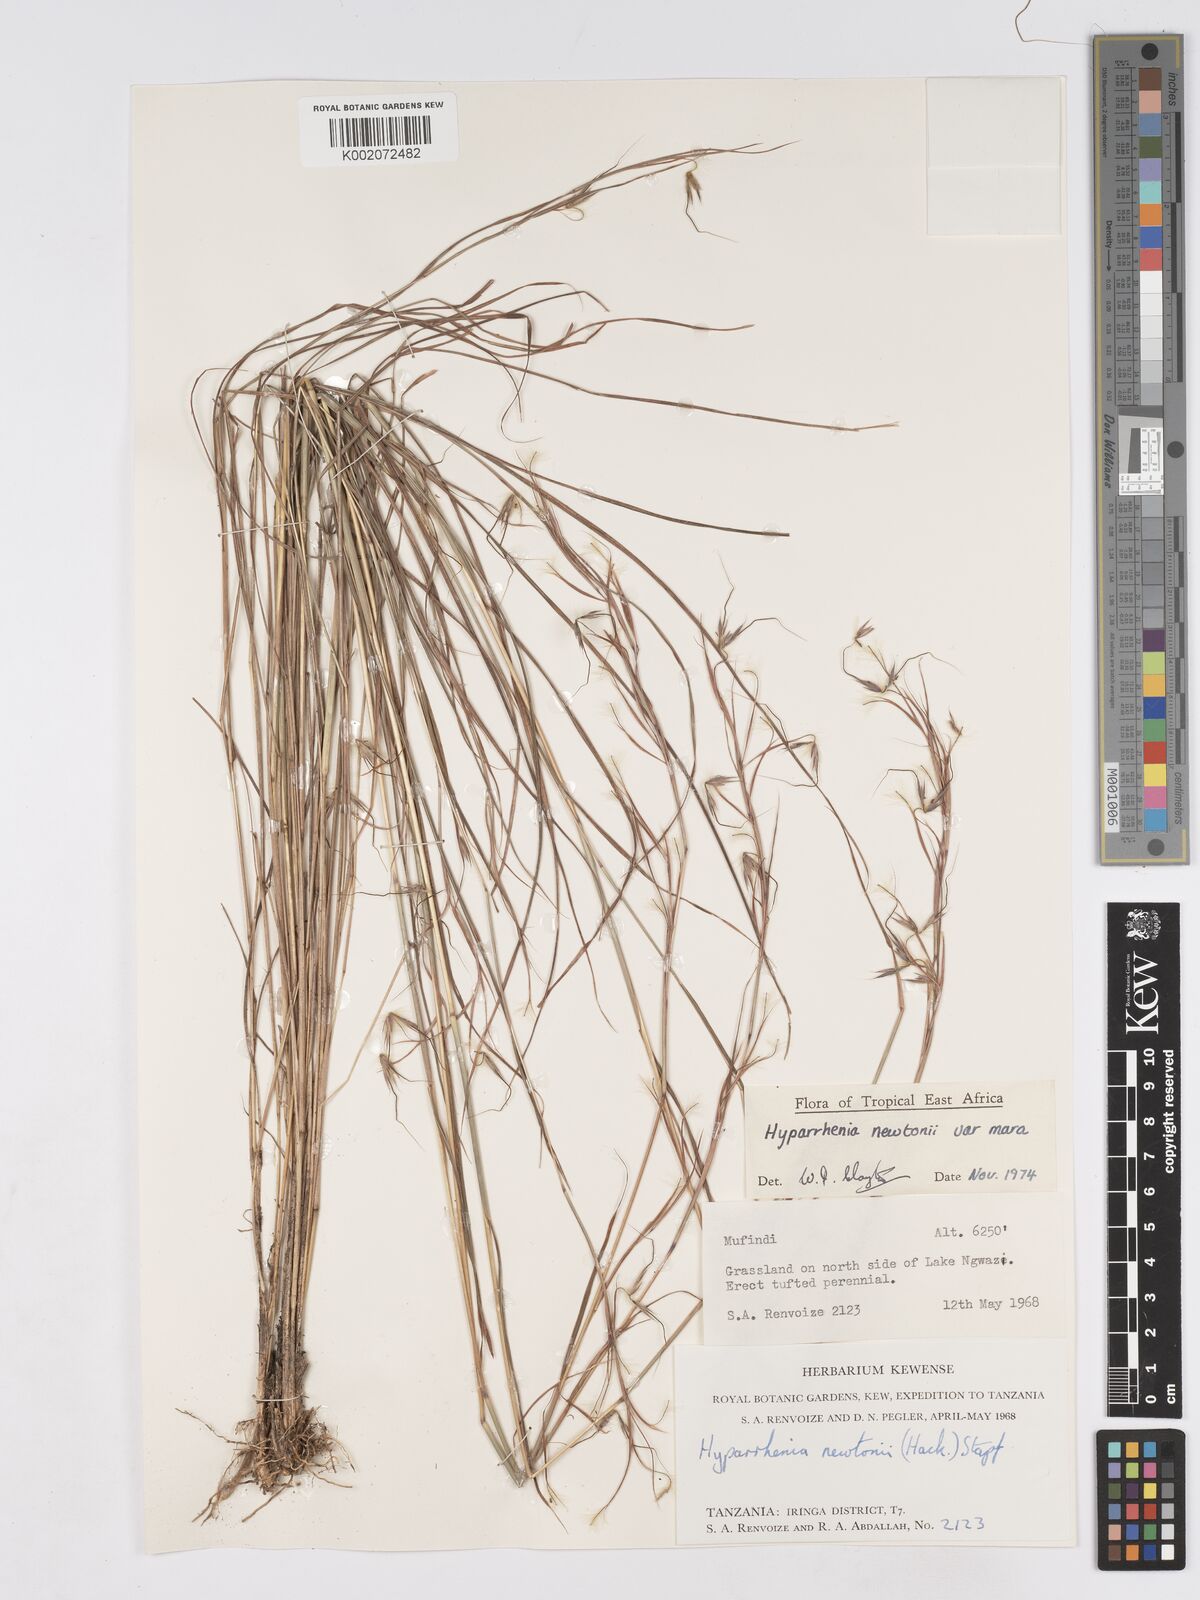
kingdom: Plantae
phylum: Tracheophyta
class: Liliopsida
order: Poales
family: Poaceae
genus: Hyparrhenia
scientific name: Hyparrhenia newtonii
